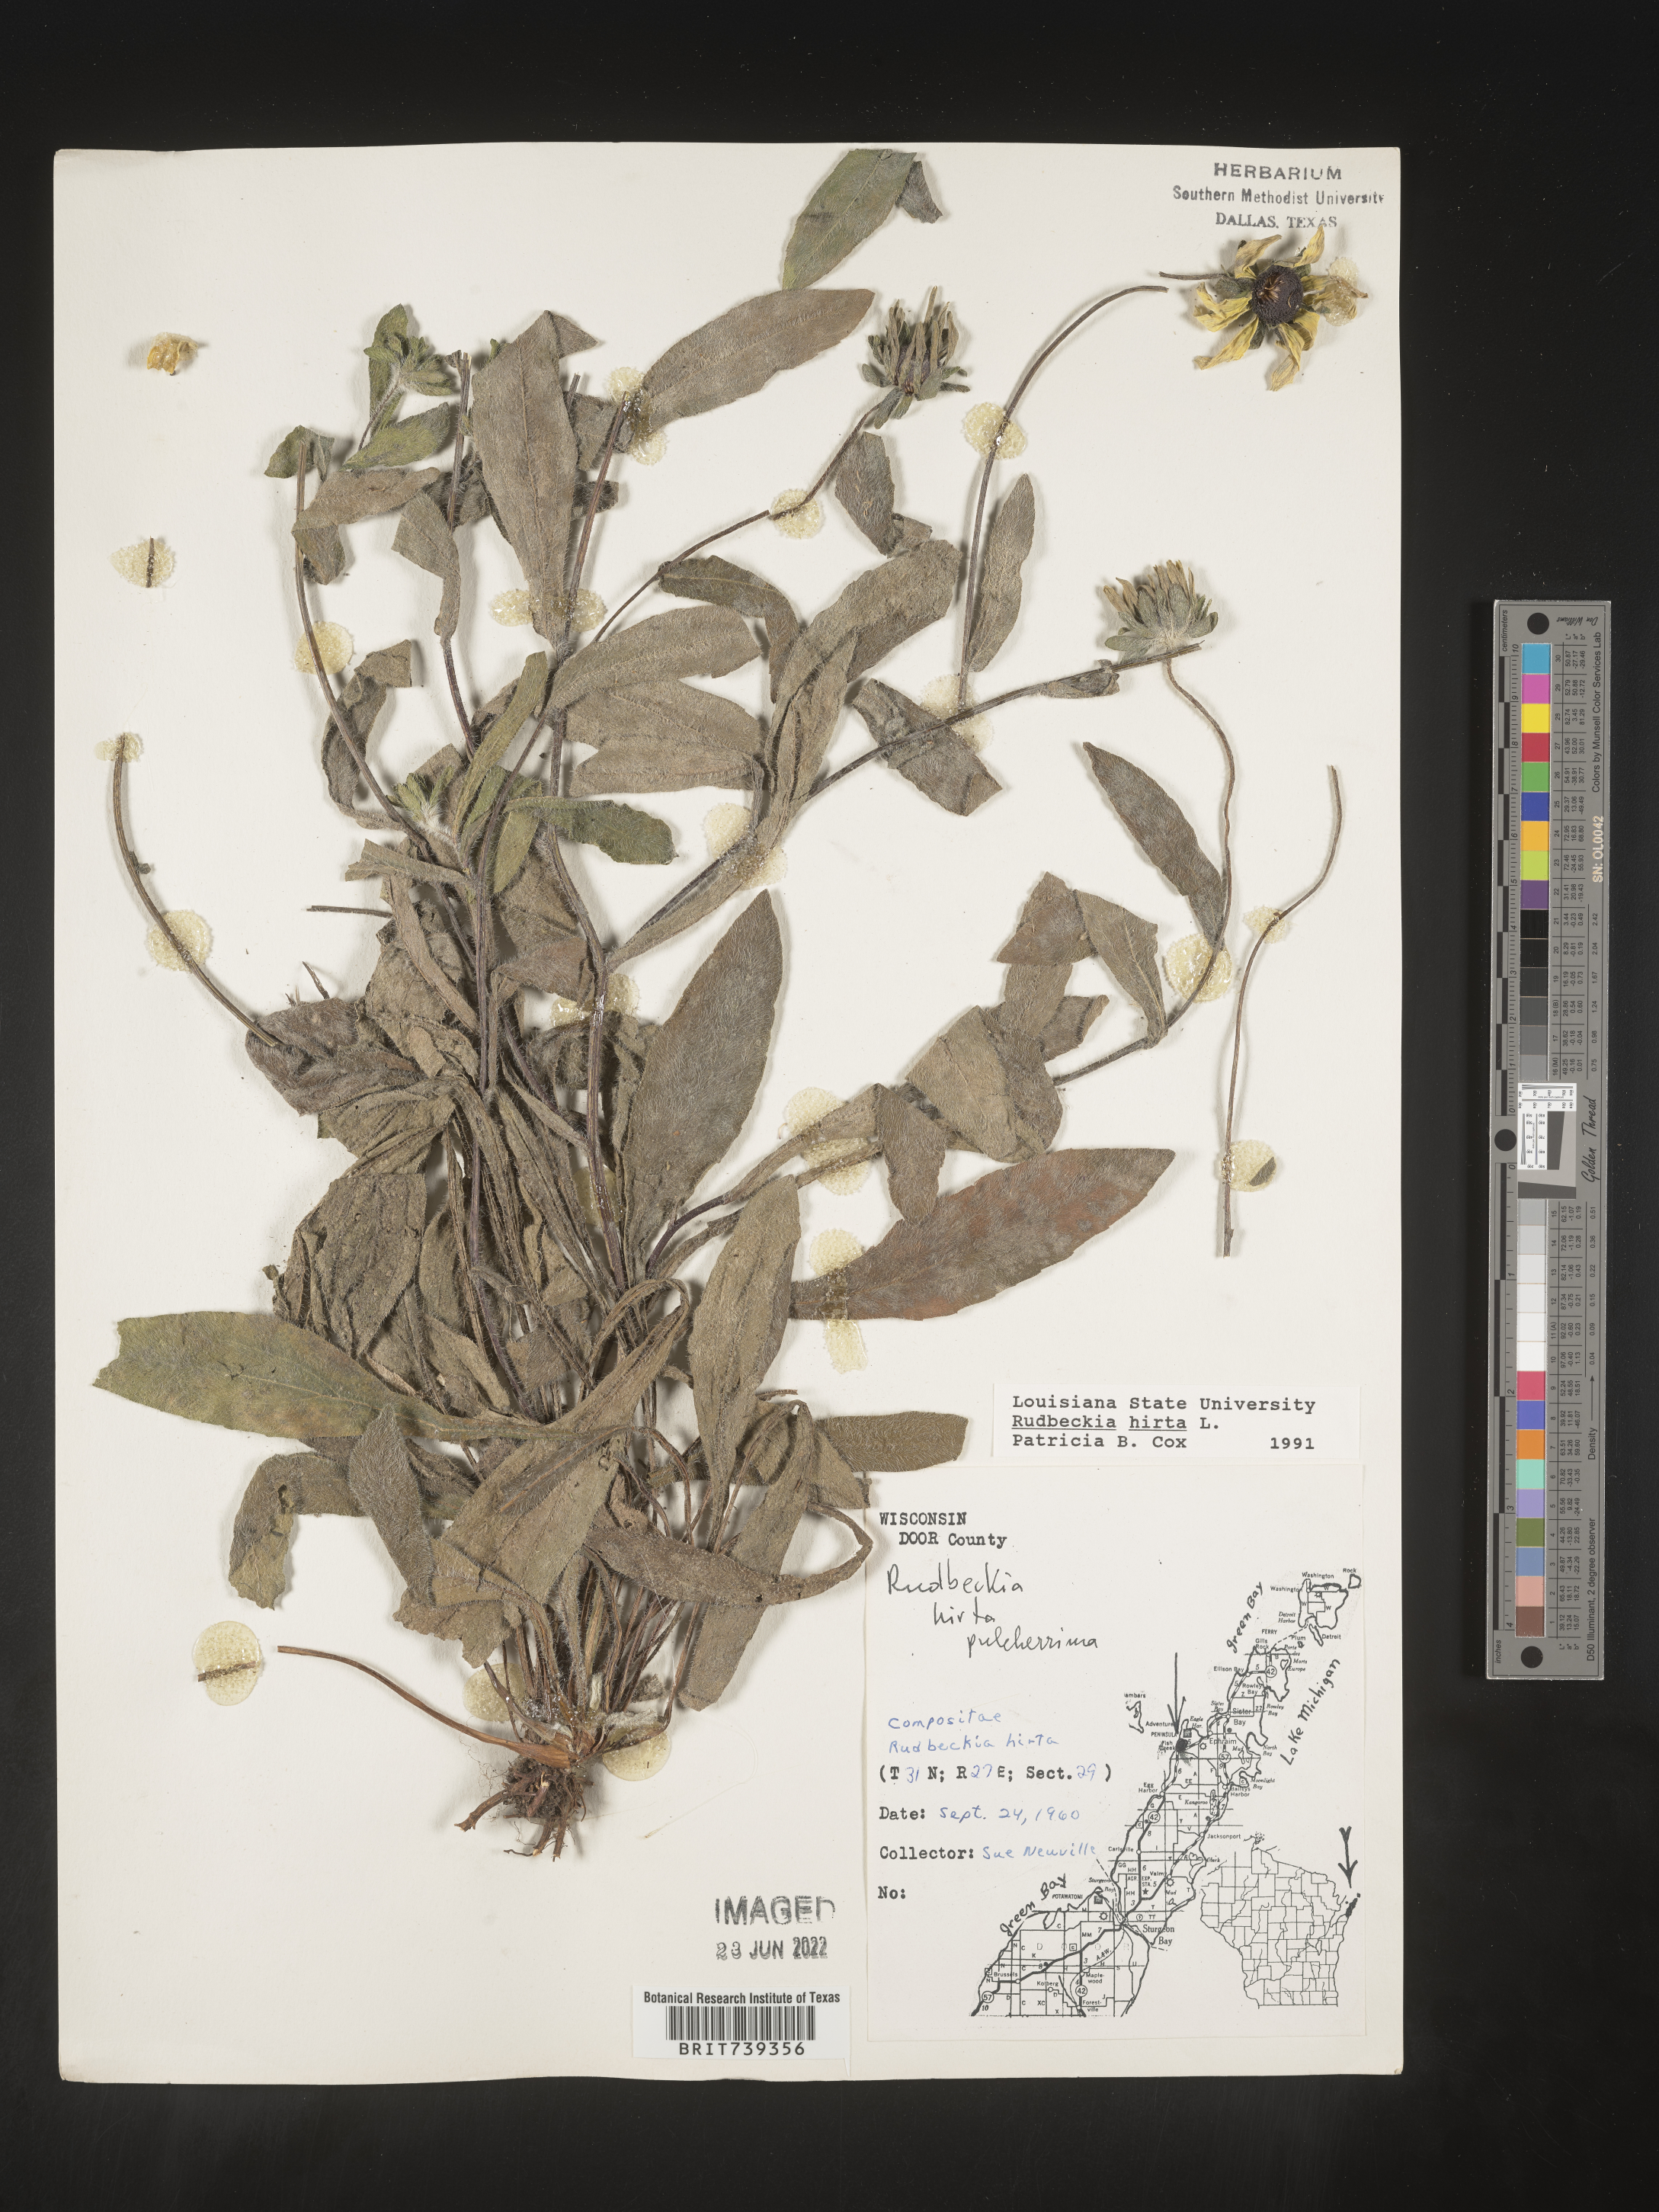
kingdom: Plantae
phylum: Tracheophyta
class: Magnoliopsida
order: Asterales
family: Asteraceae
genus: Rudbeckia
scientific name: Rudbeckia hirta
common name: Black-eyed-susan
